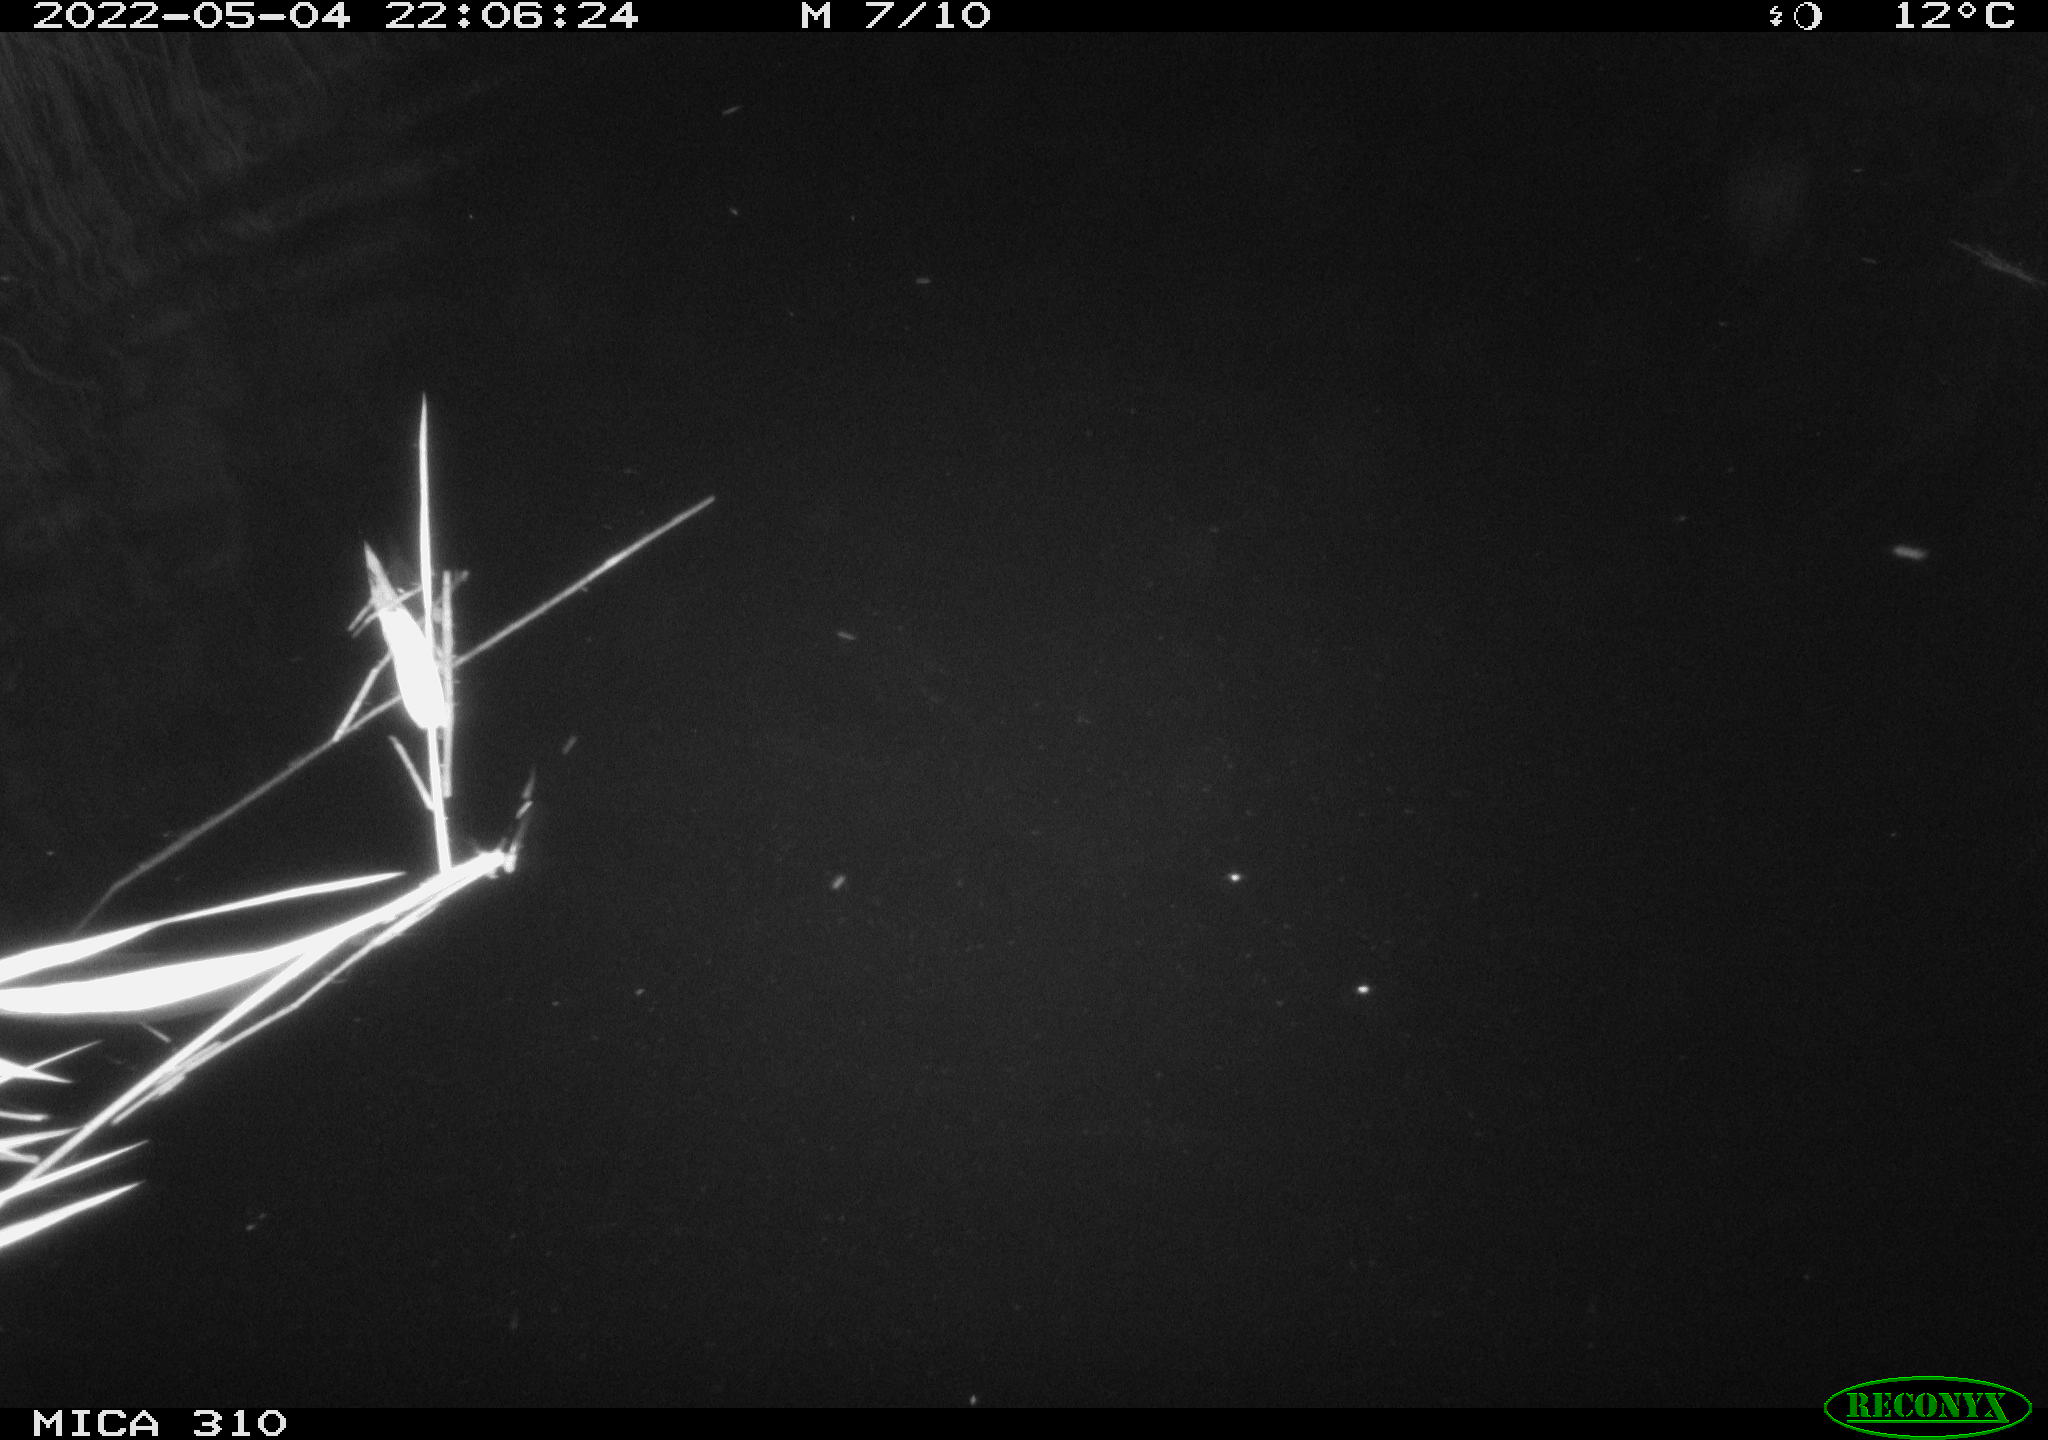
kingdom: Animalia
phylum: Chordata
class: Aves
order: Anseriformes
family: Anatidae
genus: Anas
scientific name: Anas platyrhynchos
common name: Mallard
